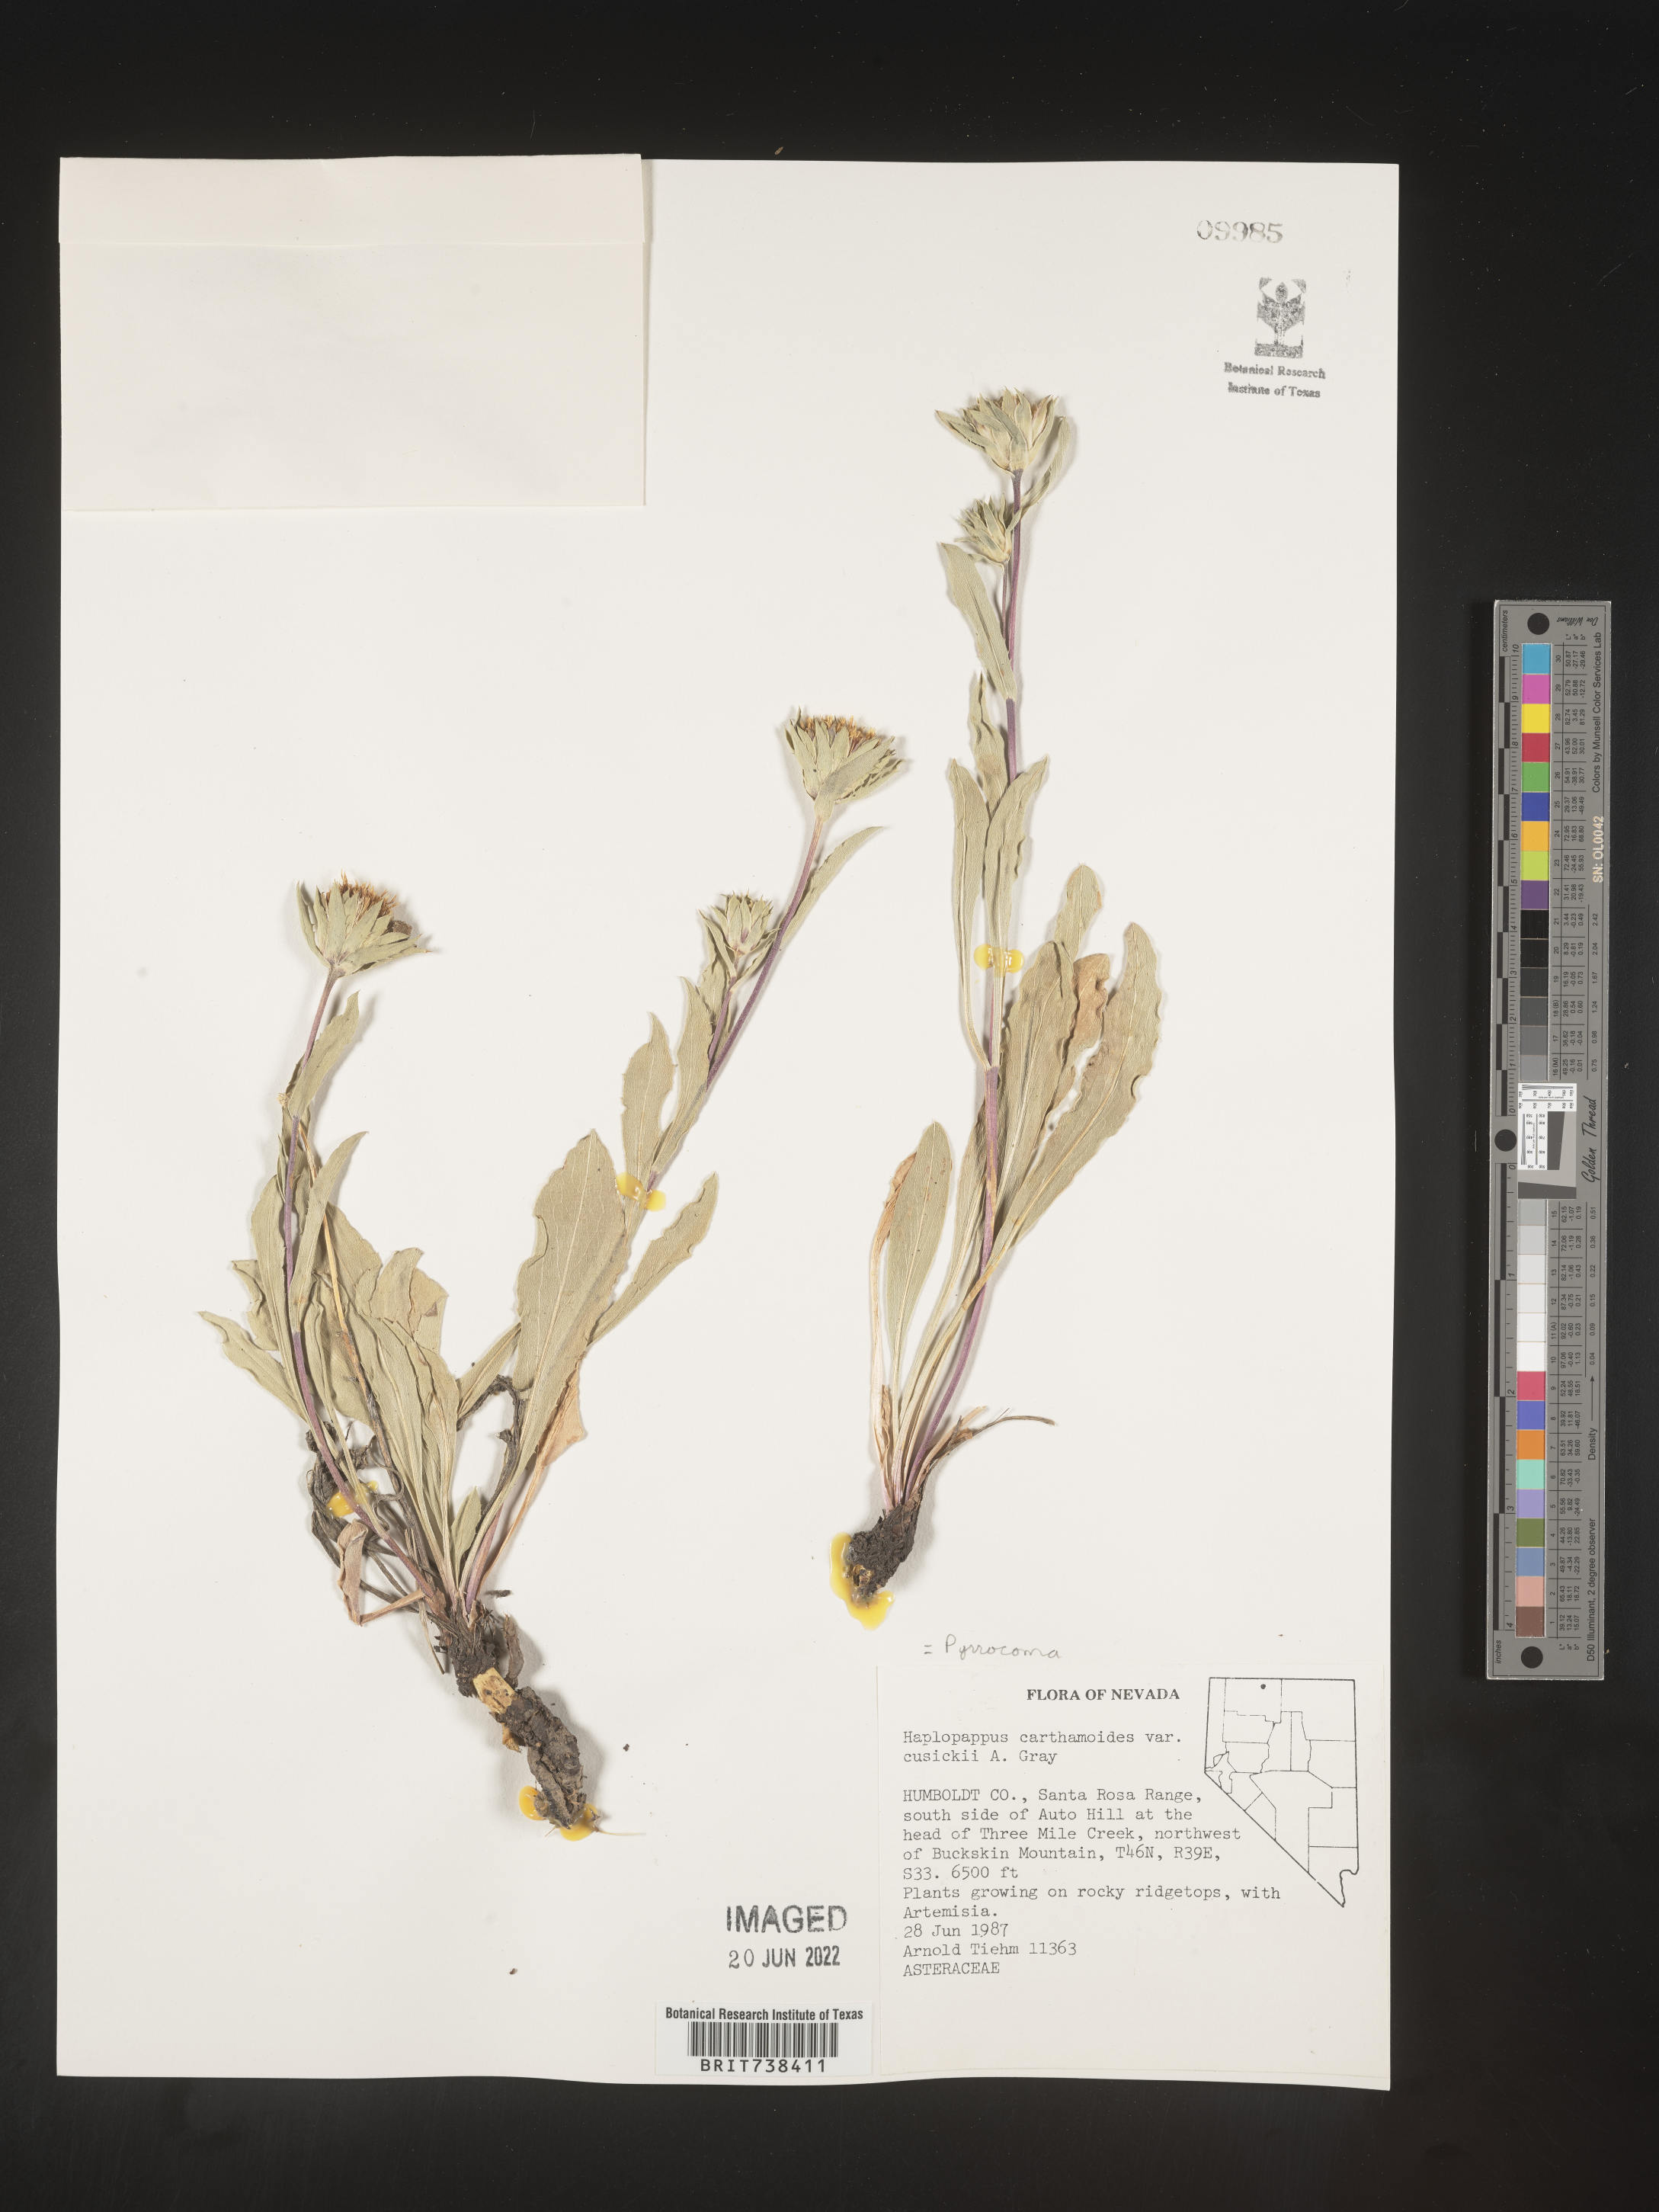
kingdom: Plantae
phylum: Tracheophyta
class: Magnoliopsida
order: Asterales
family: Asteraceae
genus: Pyrrocoma
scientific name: Pyrrocoma carthamoides
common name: Large-flower goldenweed
